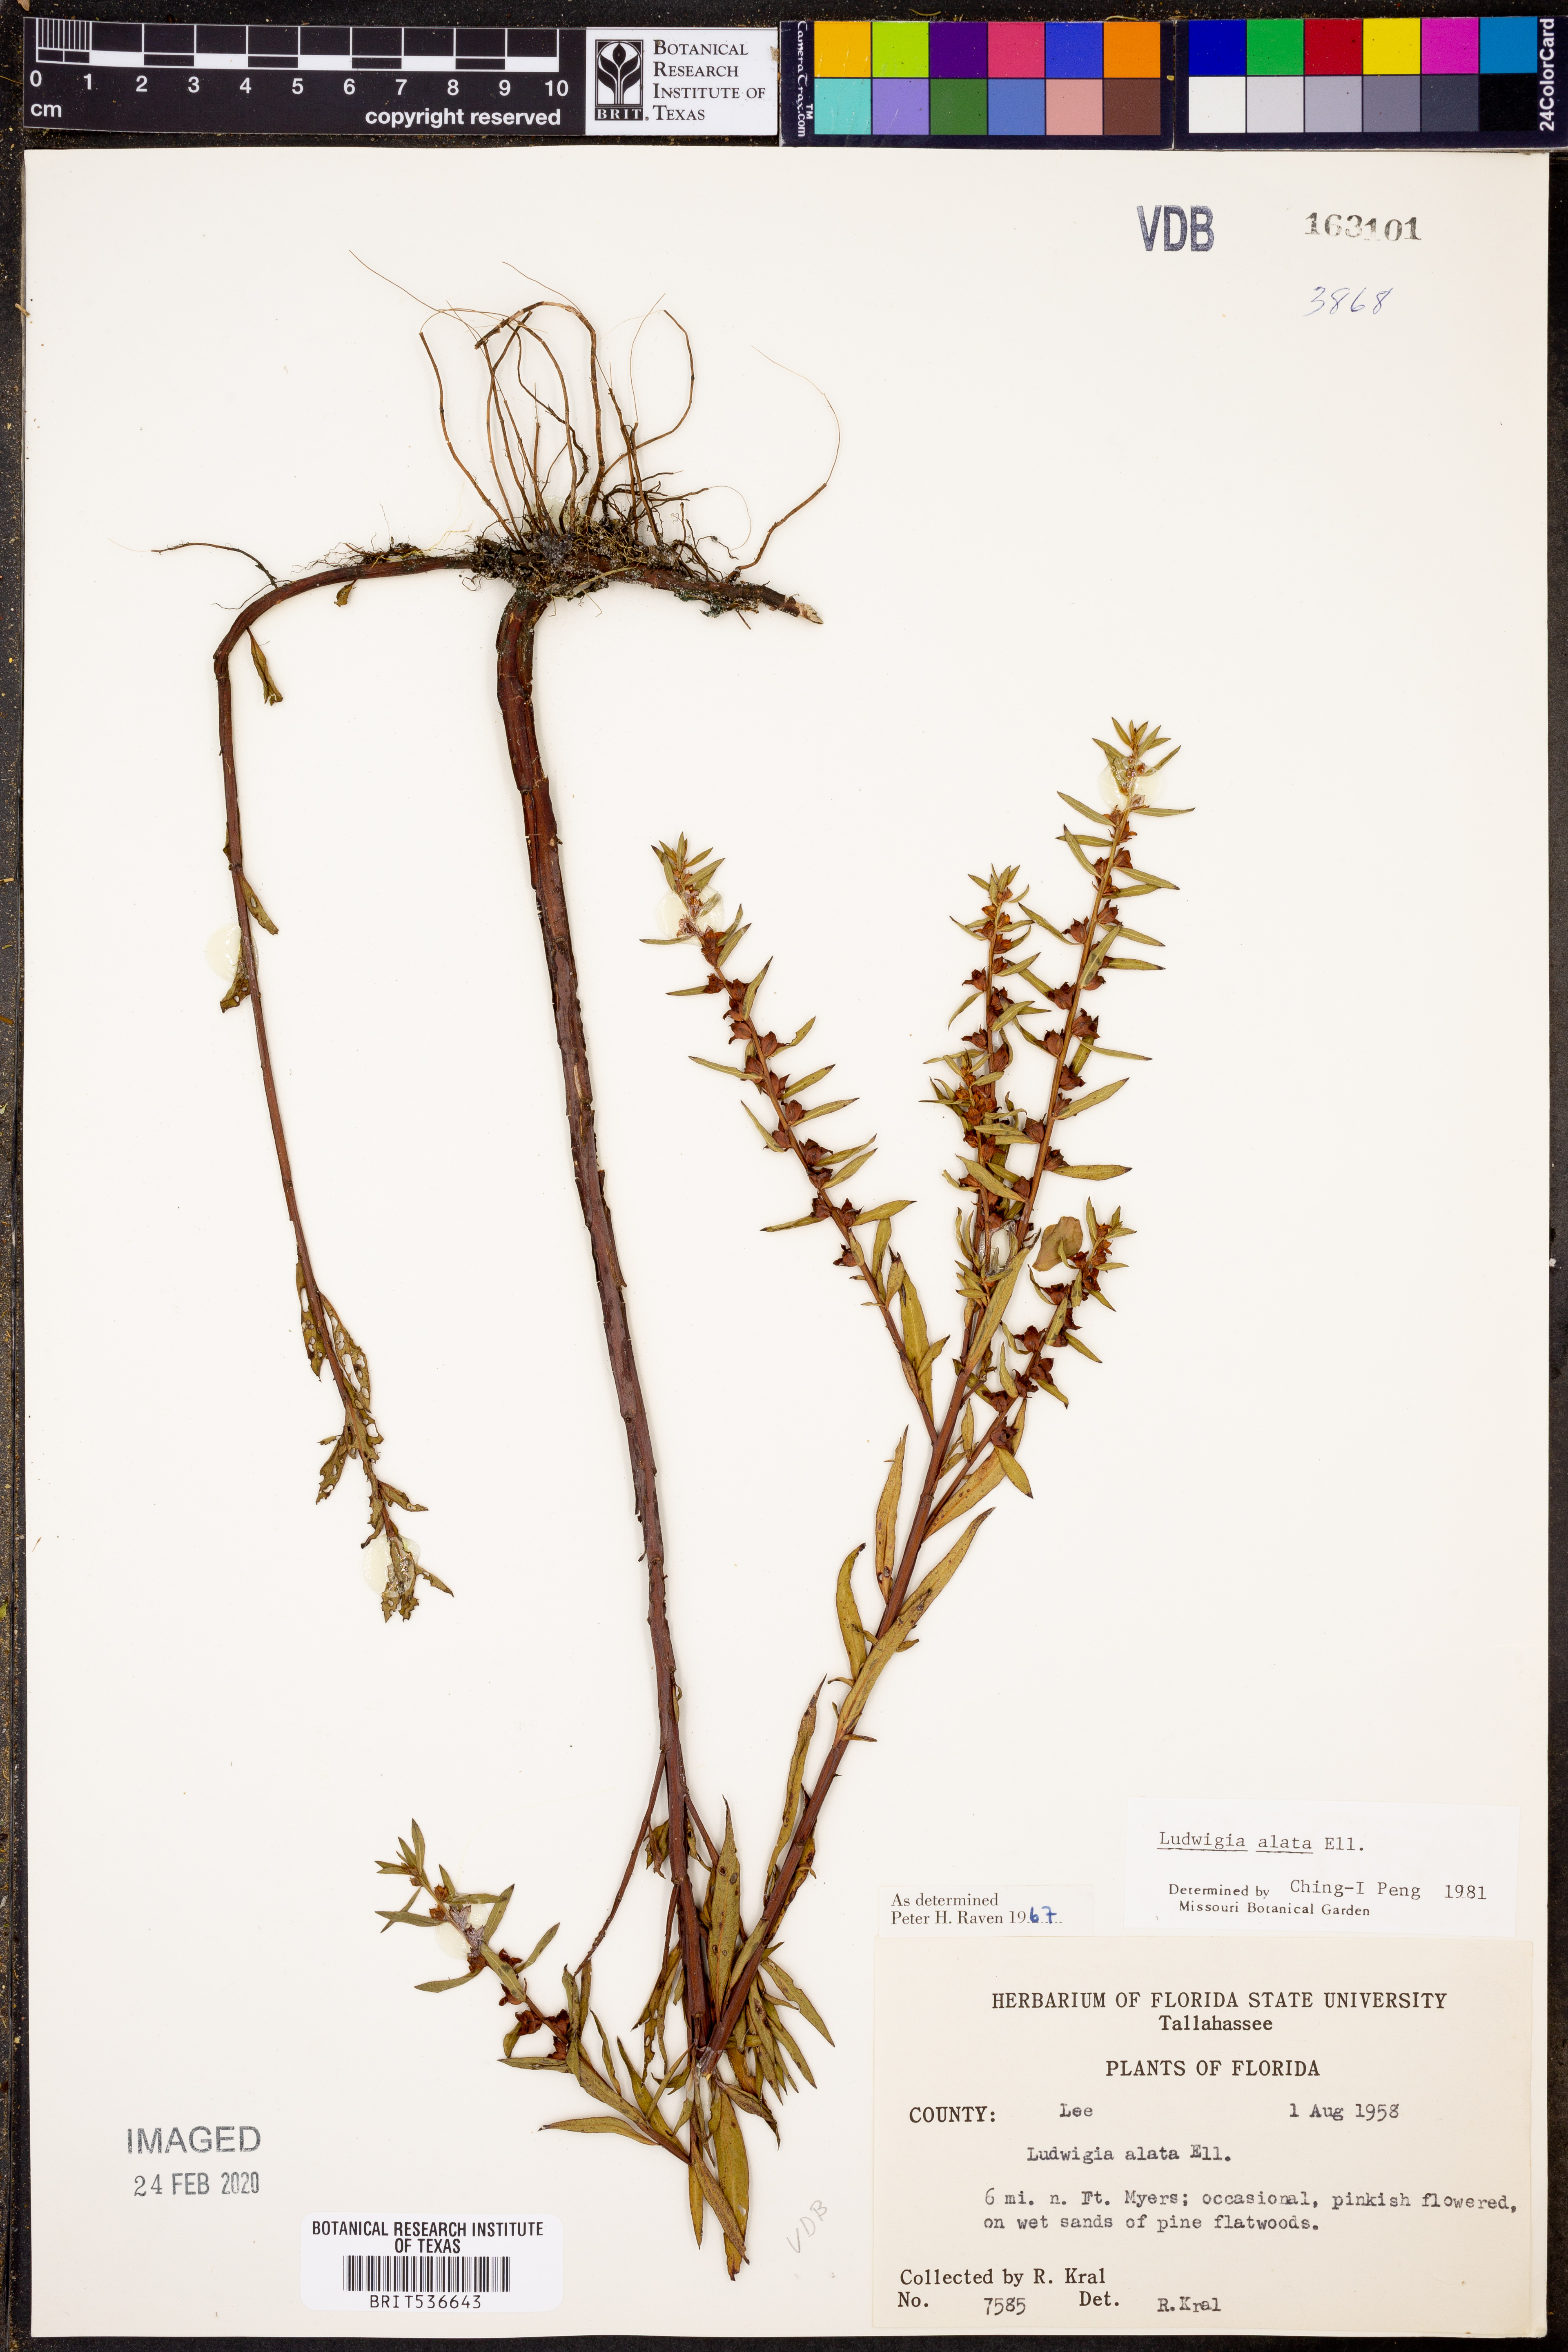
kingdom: Plantae
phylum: Tracheophyta
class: Magnoliopsida
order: Myrtales
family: Onagraceae
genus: Ludwigia
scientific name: Ludwigia alata
